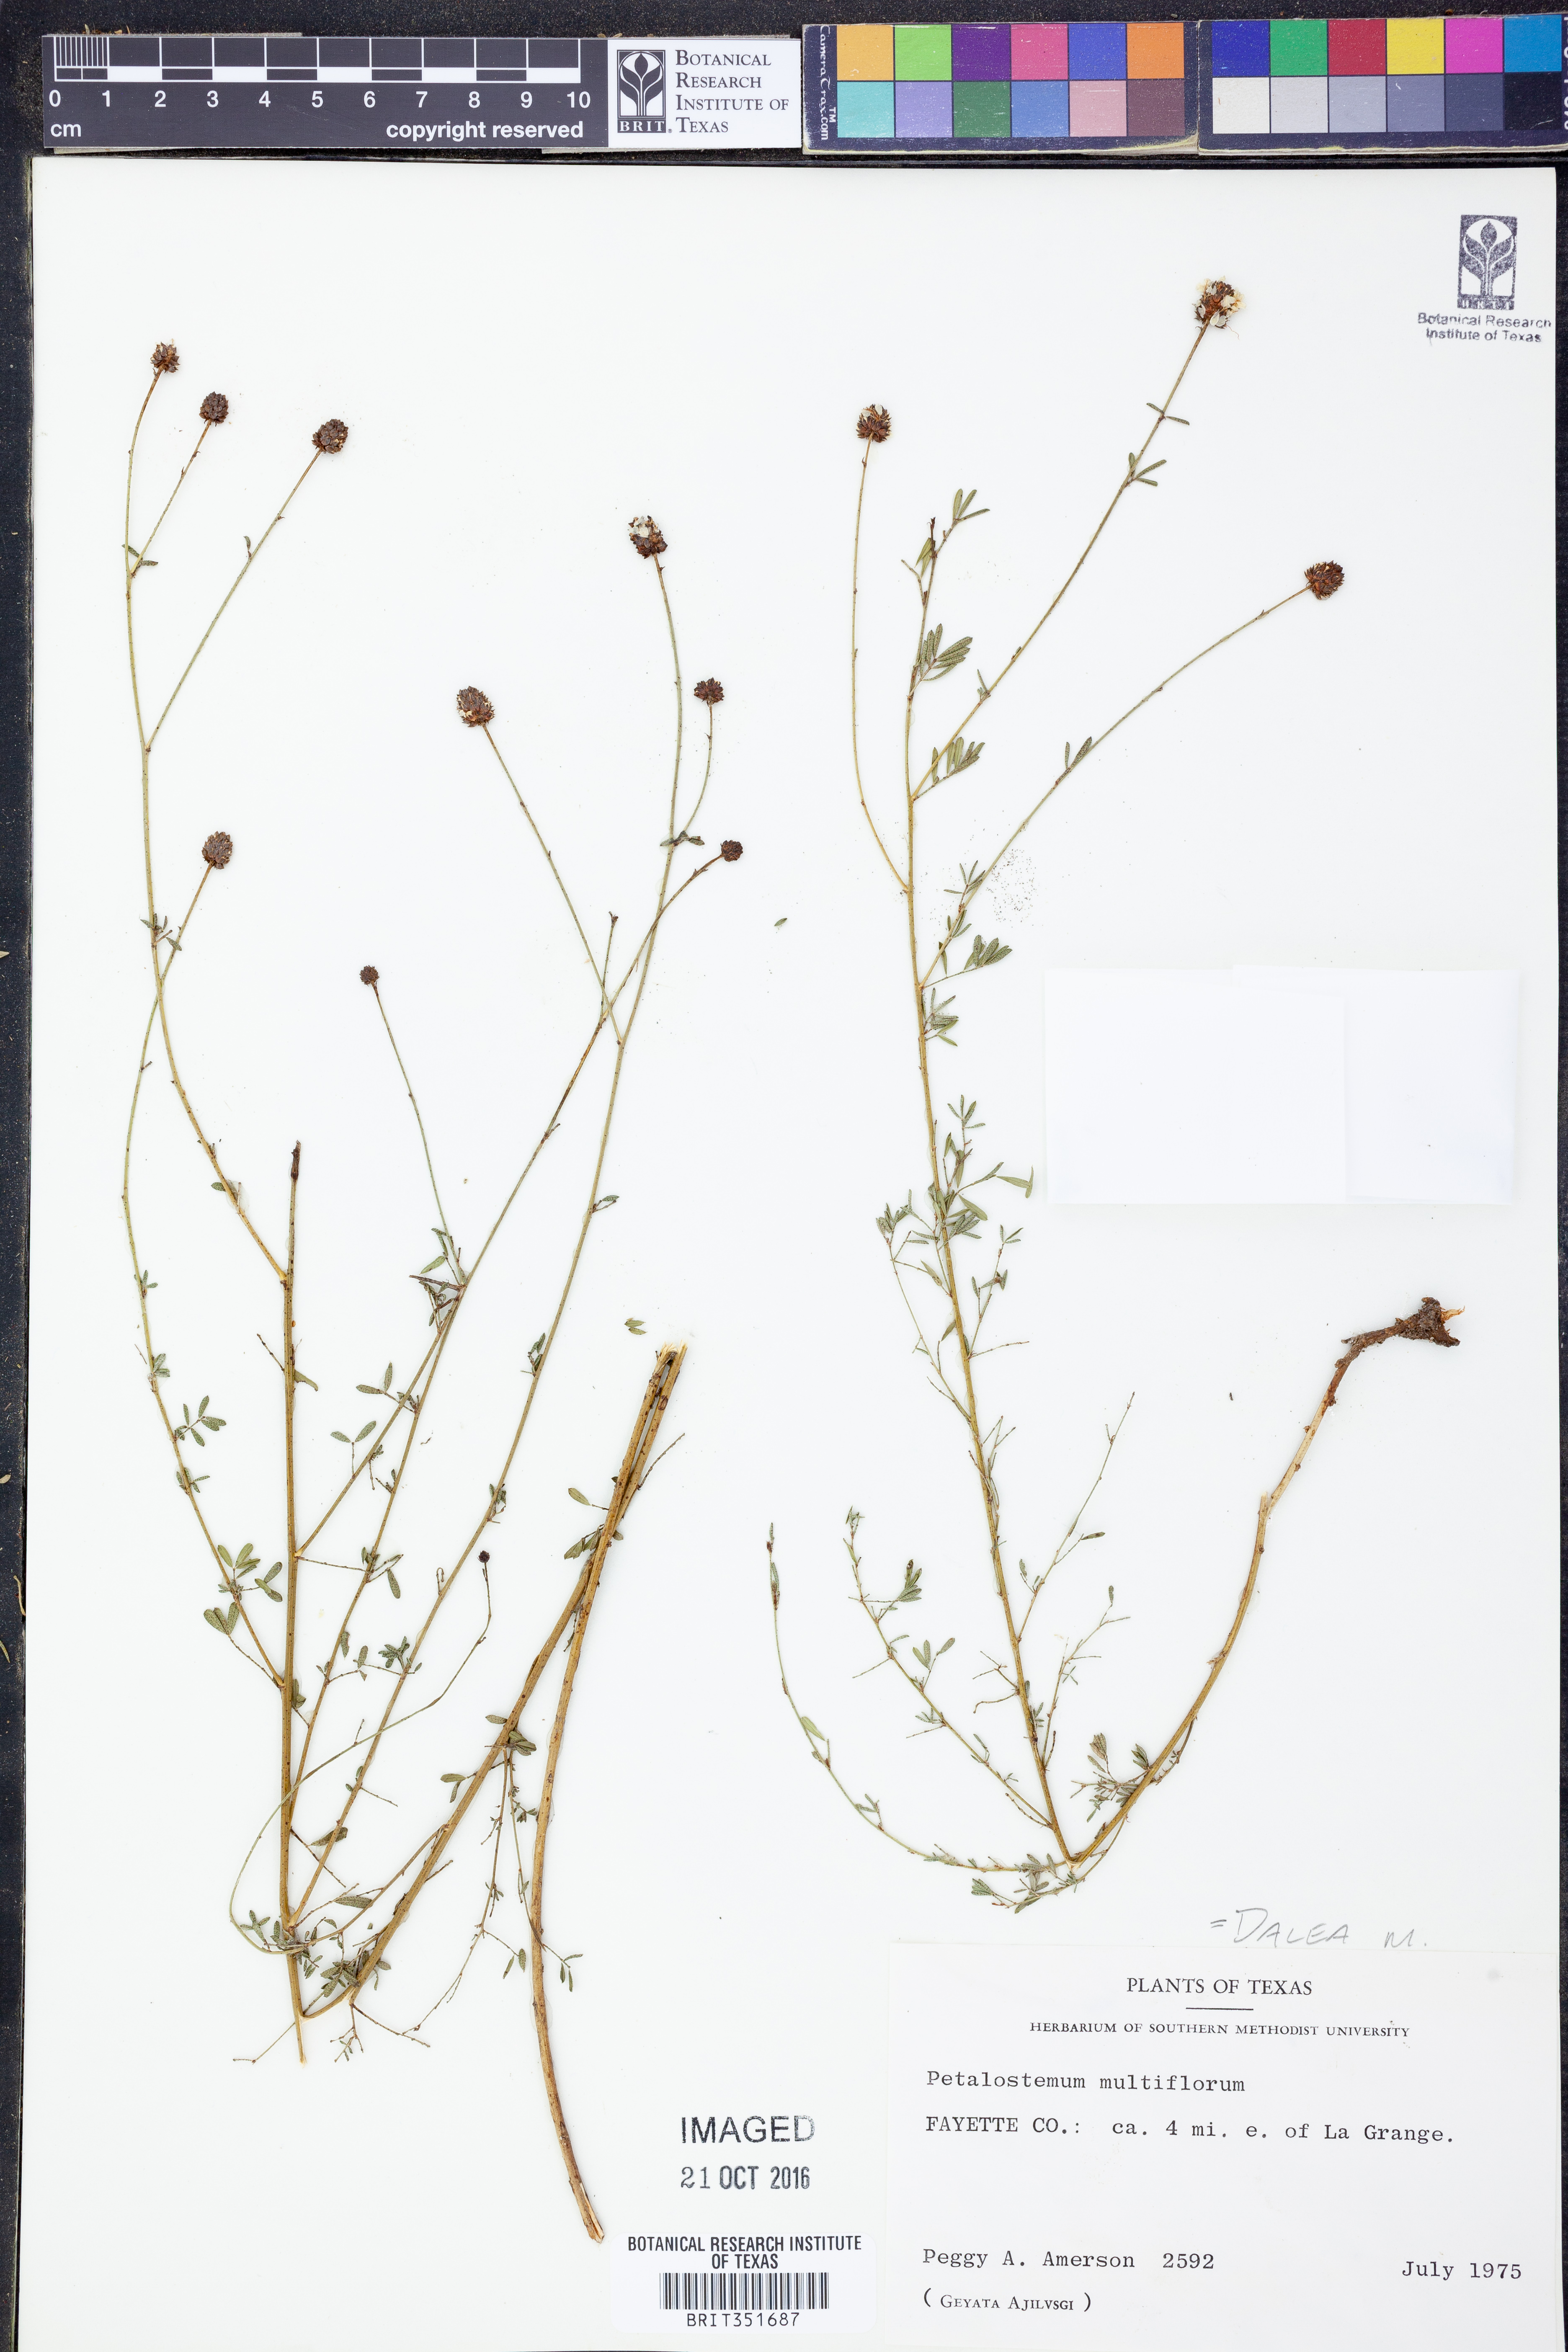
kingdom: Plantae
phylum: Tracheophyta
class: Magnoliopsida
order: Fabales
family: Fabaceae
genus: Dalea
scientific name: Dalea multiflora
